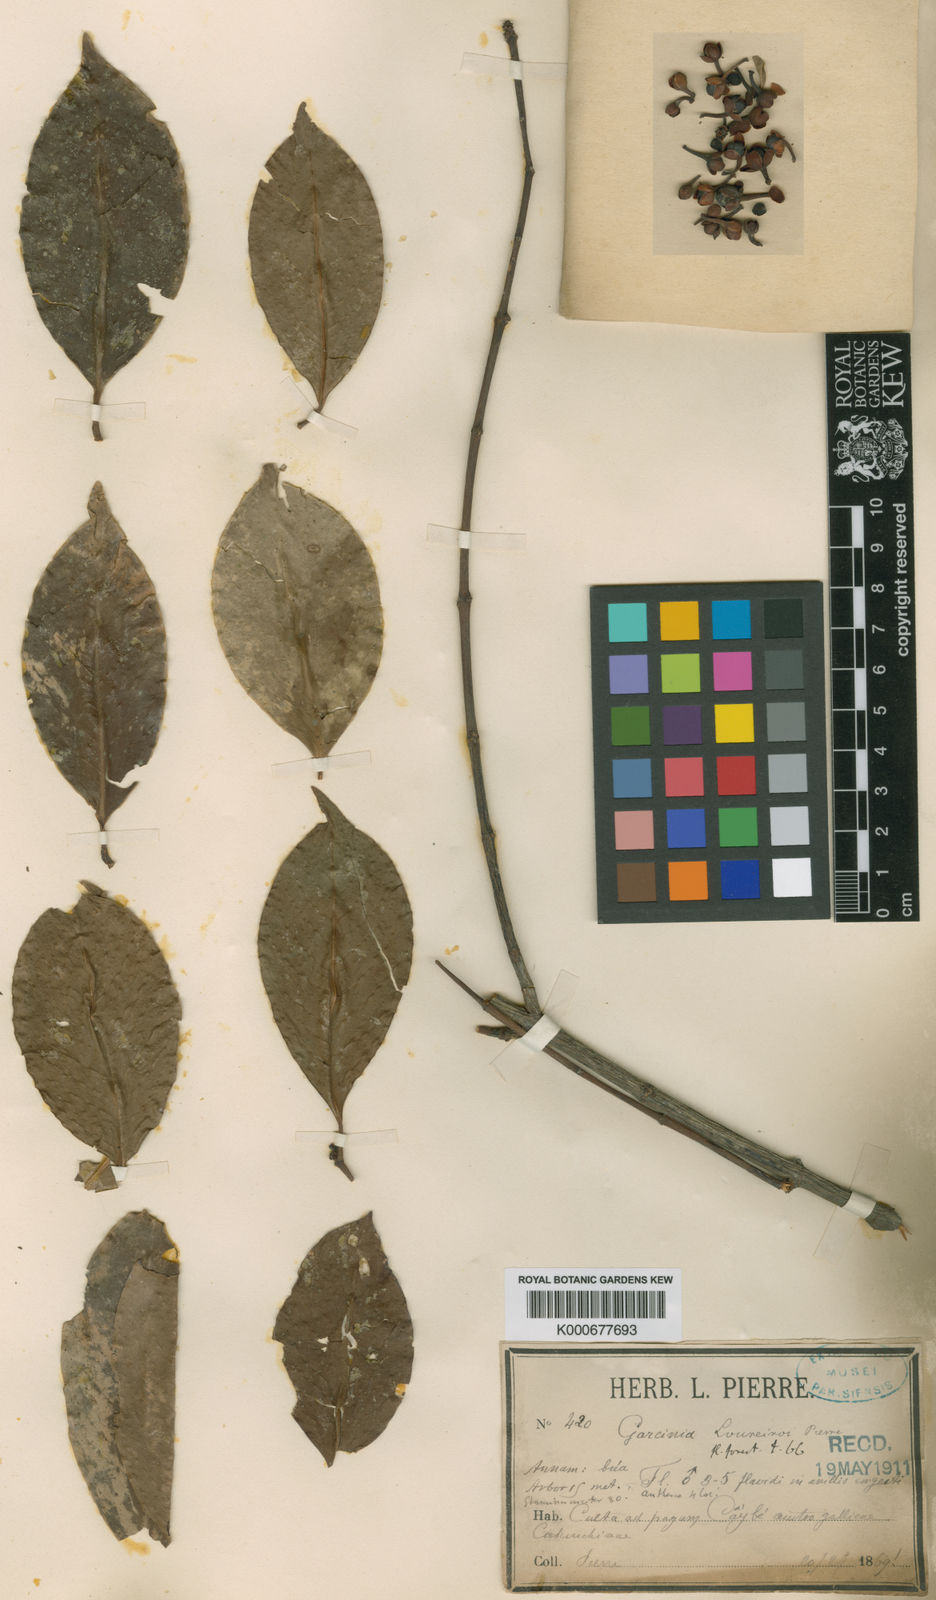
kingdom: Plantae
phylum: Tracheophyta
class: Magnoliopsida
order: Malpighiales
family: Clusiaceae
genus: Garcinia
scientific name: Garcinia cochinchinensis
